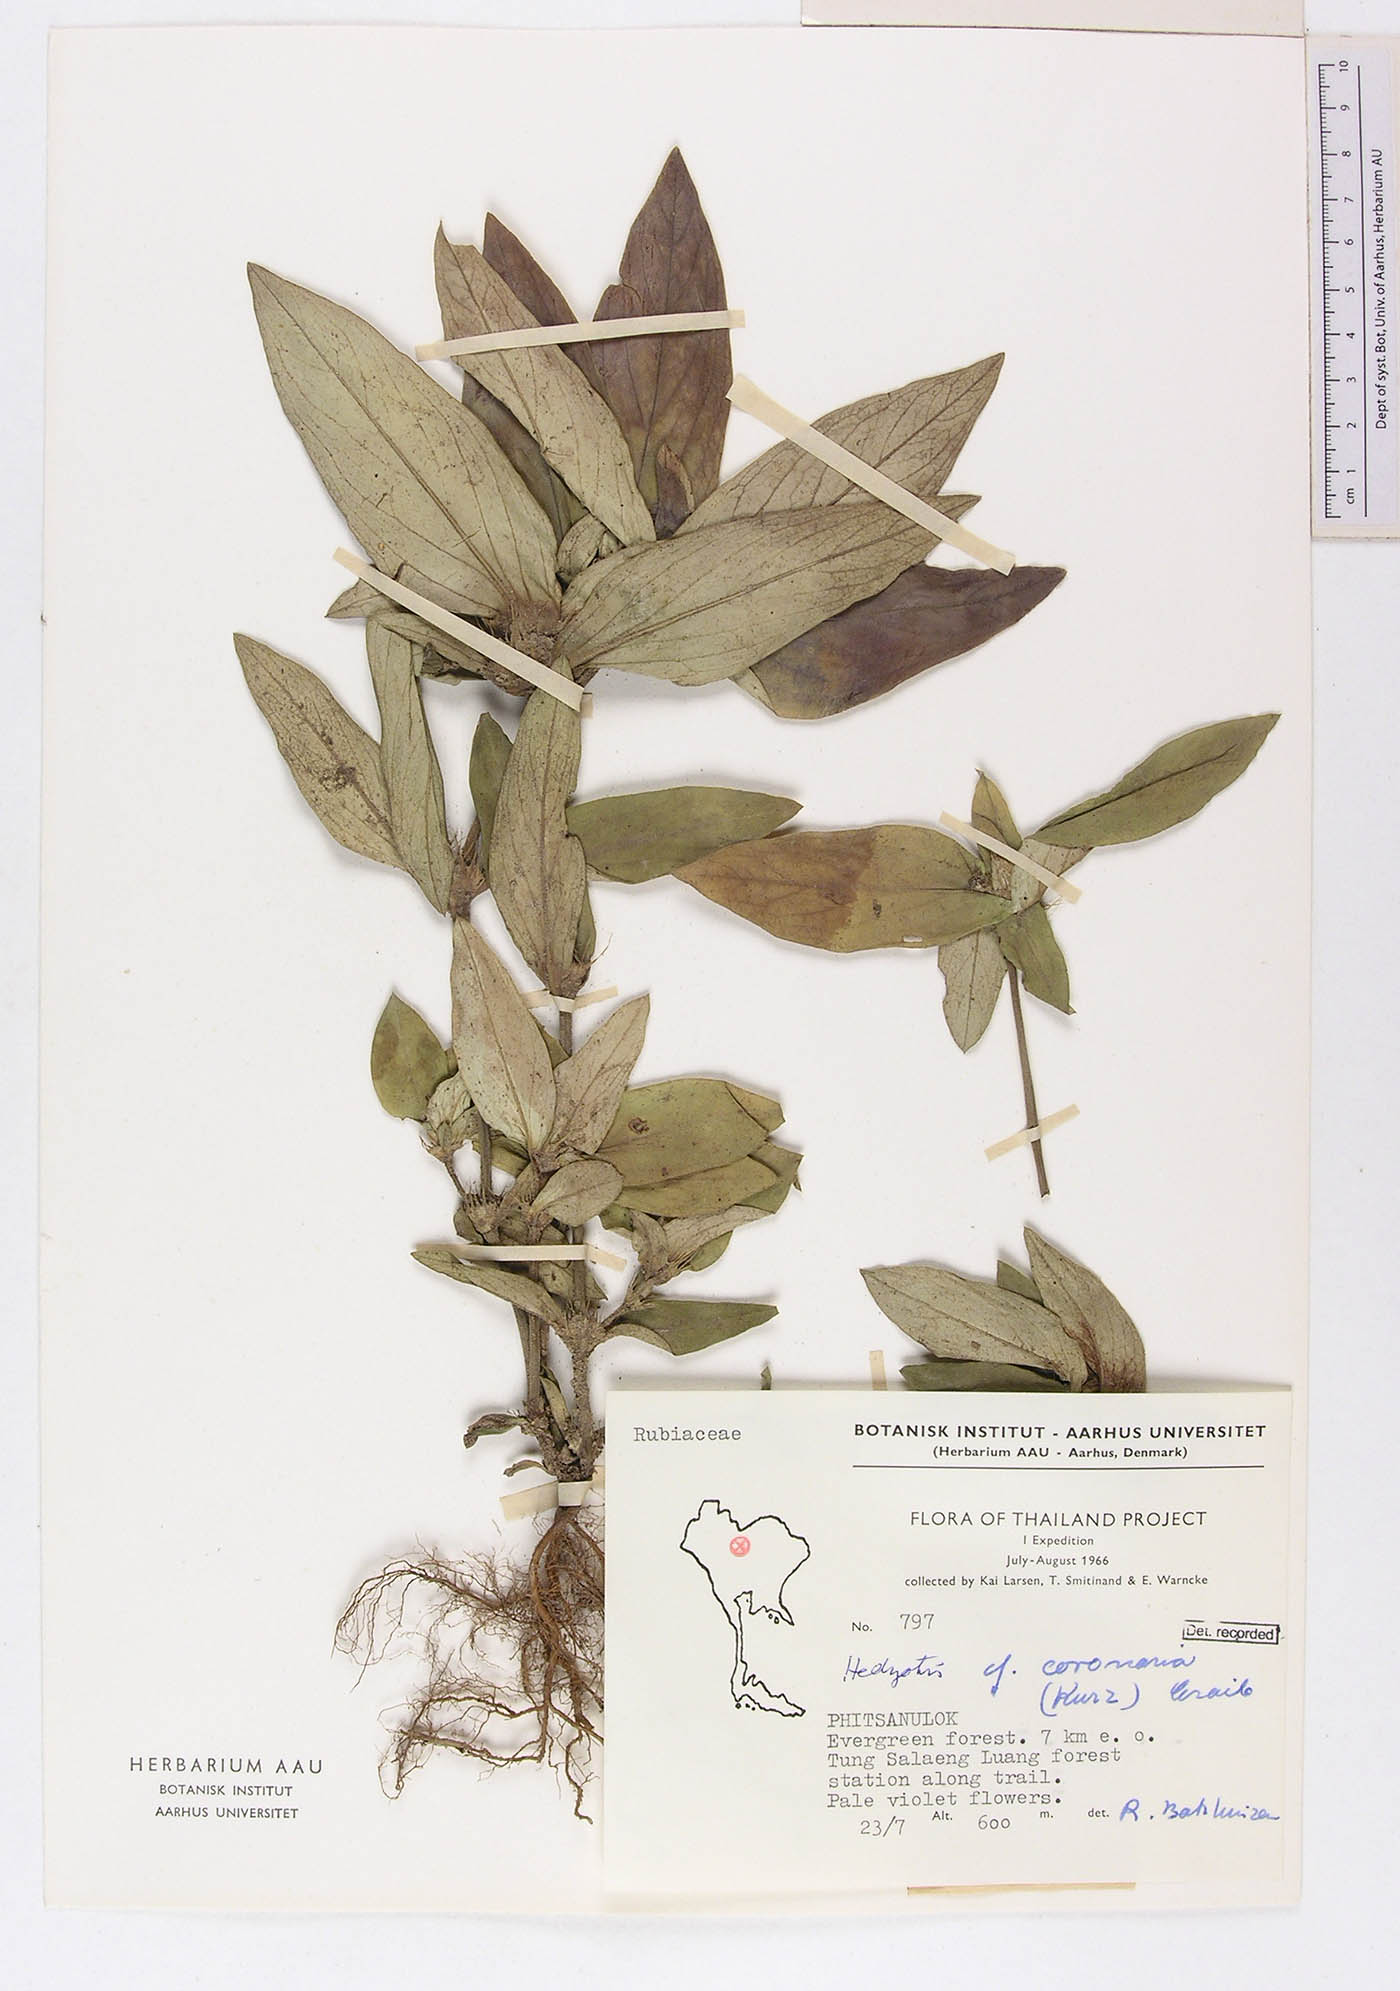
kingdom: Plantae
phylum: Tracheophyta
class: Magnoliopsida
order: Gentianales
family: Rubiaceae
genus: Involucrella
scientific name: Involucrella coronaria
